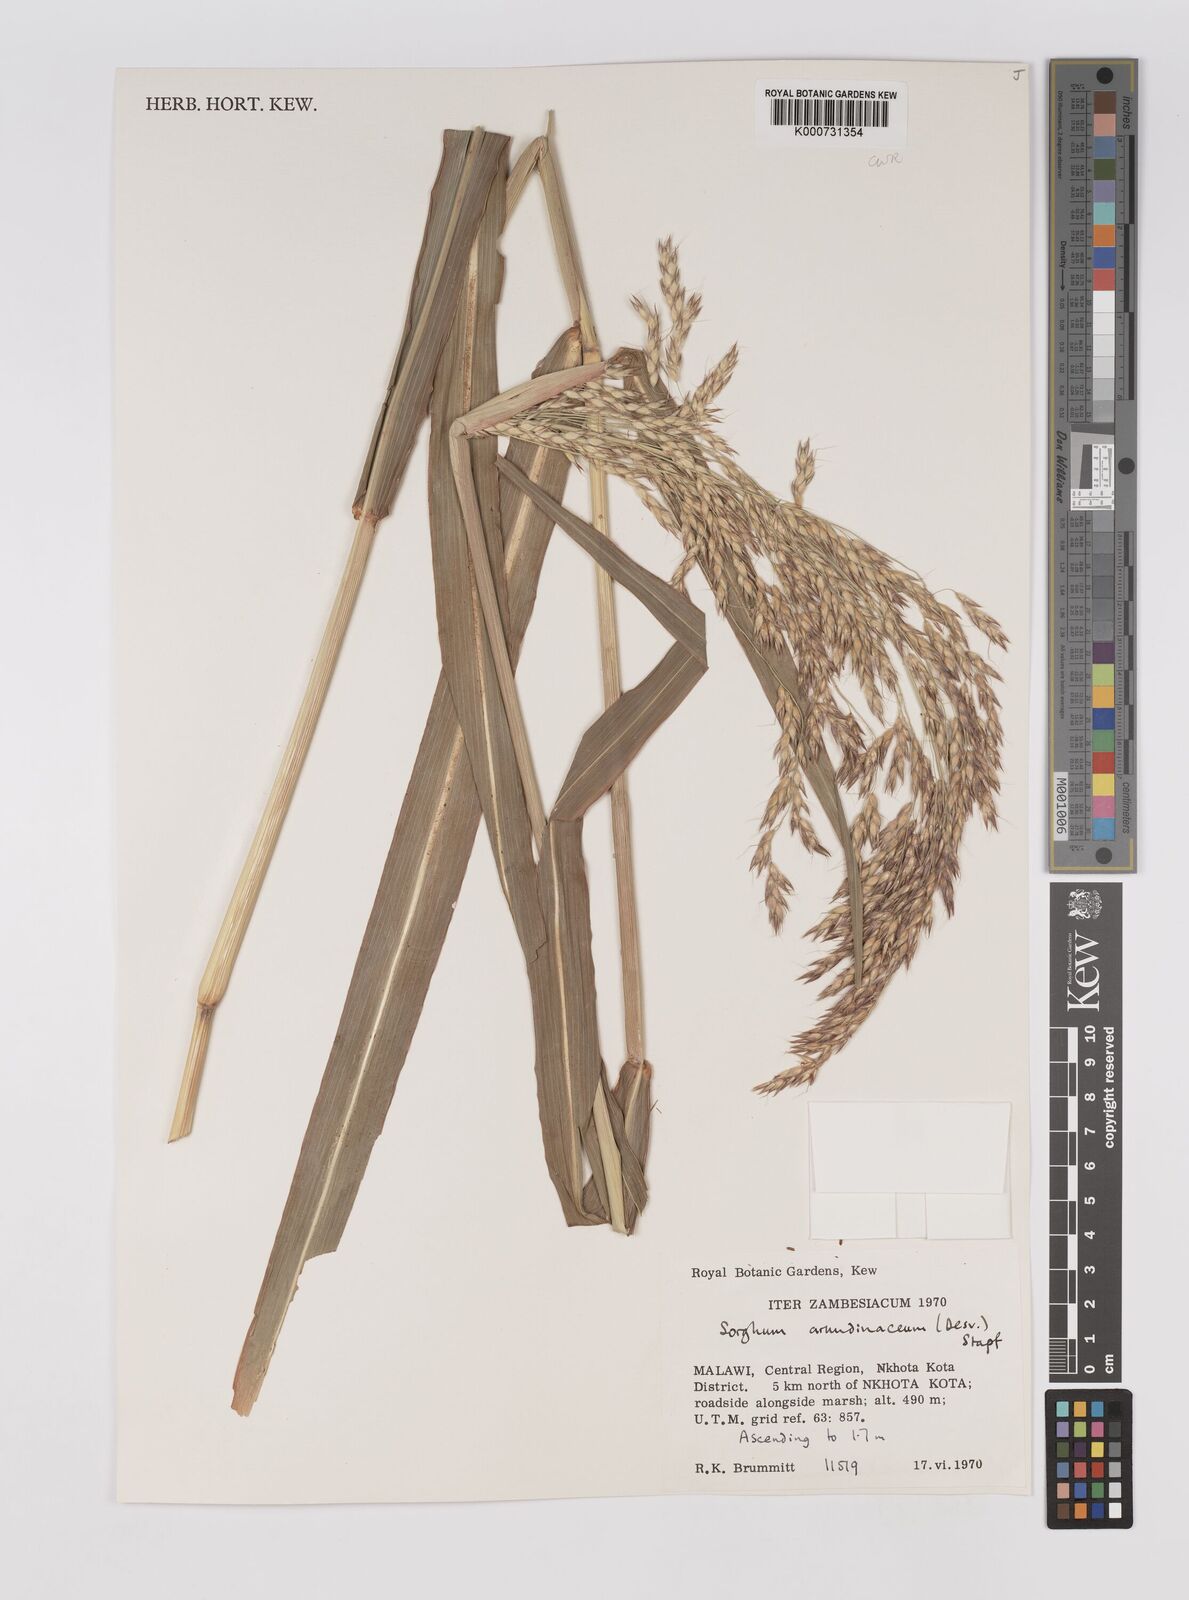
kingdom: Plantae
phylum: Tracheophyta
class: Liliopsida
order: Poales
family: Poaceae
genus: Sorghum
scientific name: Sorghum arundinaceum
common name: Sorghum
